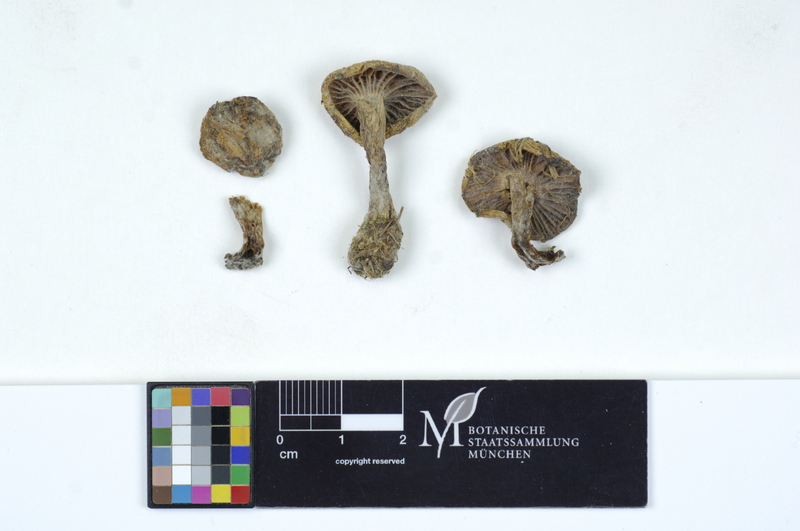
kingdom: Fungi
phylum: Basidiomycota
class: Agaricomycetes
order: Agaricales
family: Hygrophoraceae
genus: Hygrophorus
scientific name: Hygrophorus lucorum
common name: Larch woodwax
